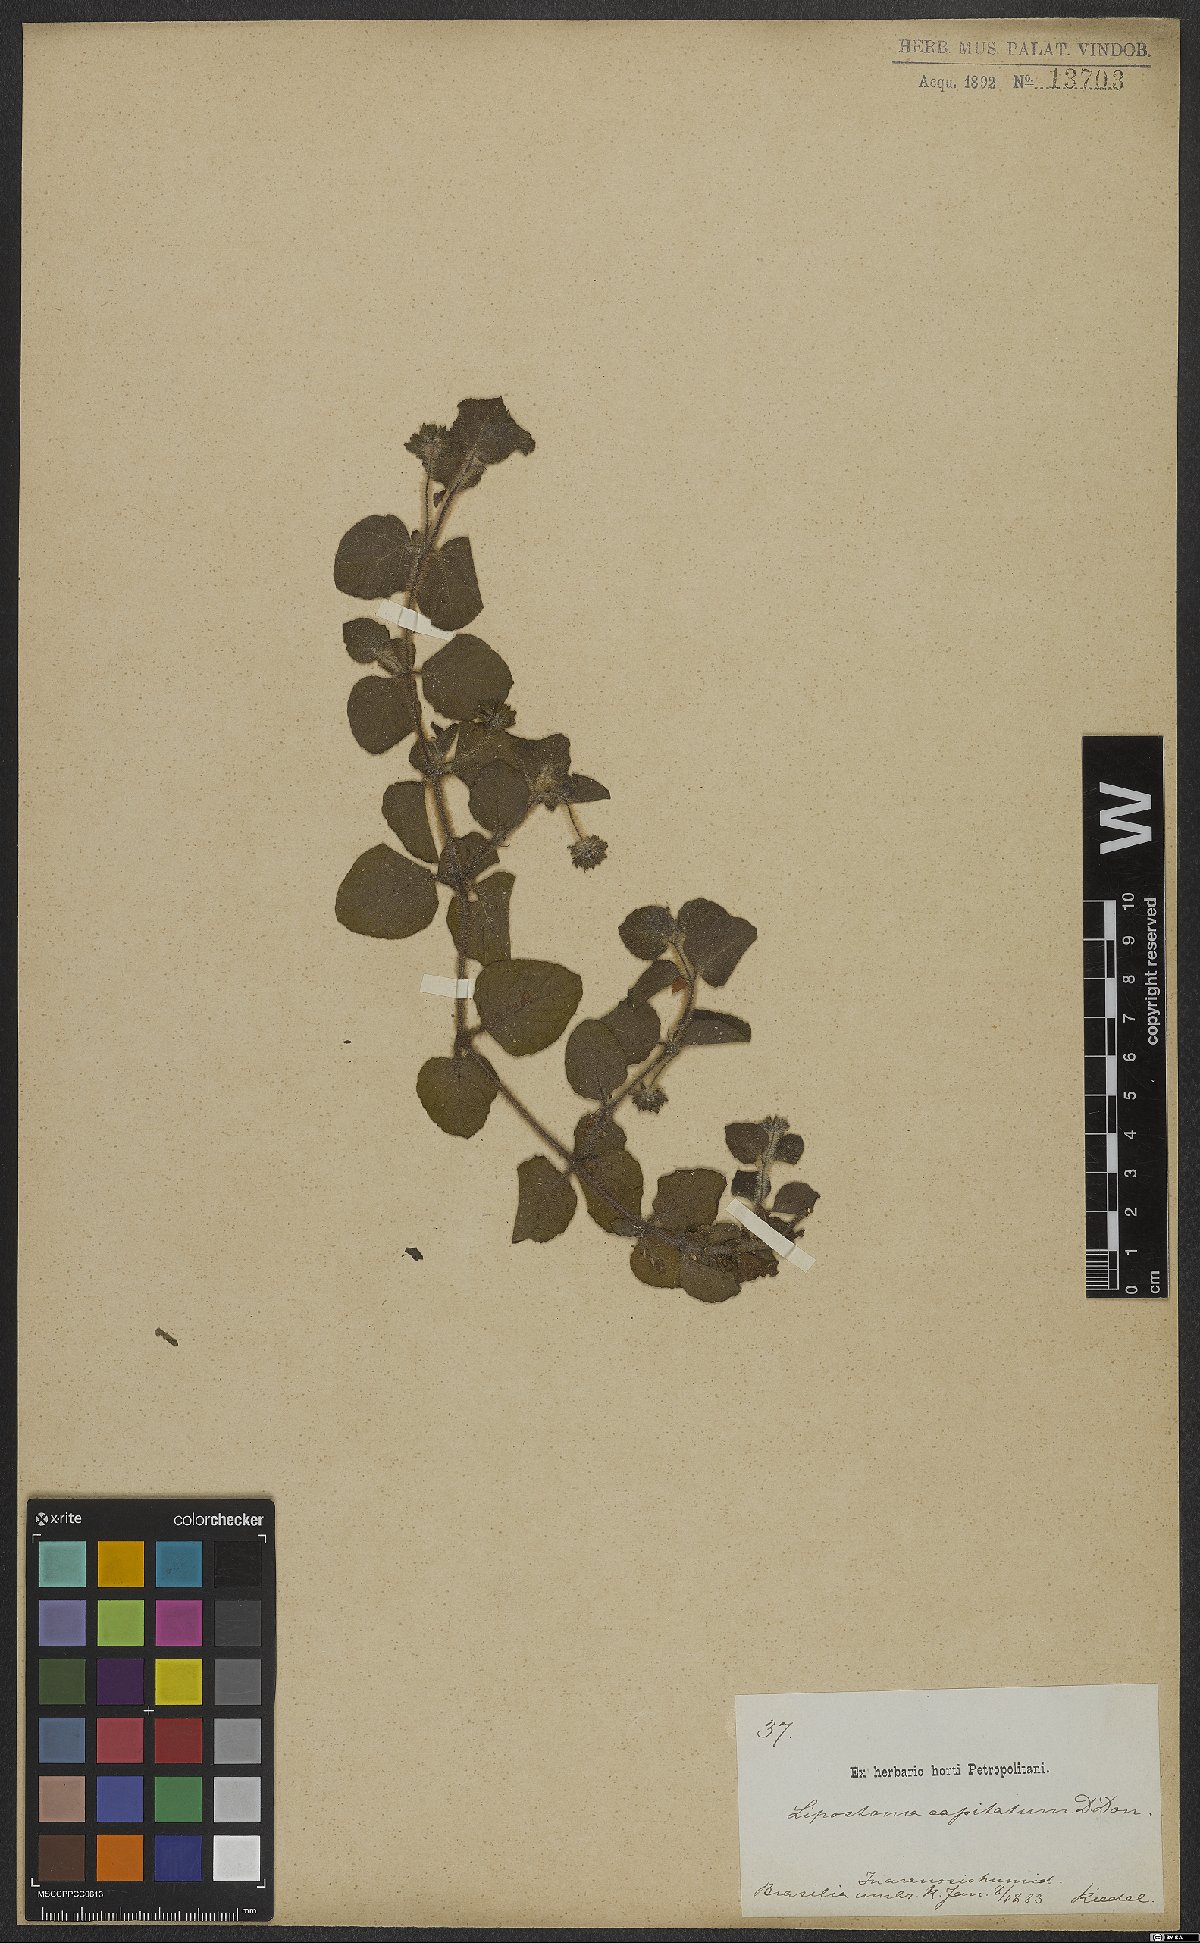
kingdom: Plantae
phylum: Tracheophyta
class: Magnoliopsida
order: Gentianales
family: Rubiaceae
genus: Coccocypselum
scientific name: Coccocypselum capitatum
